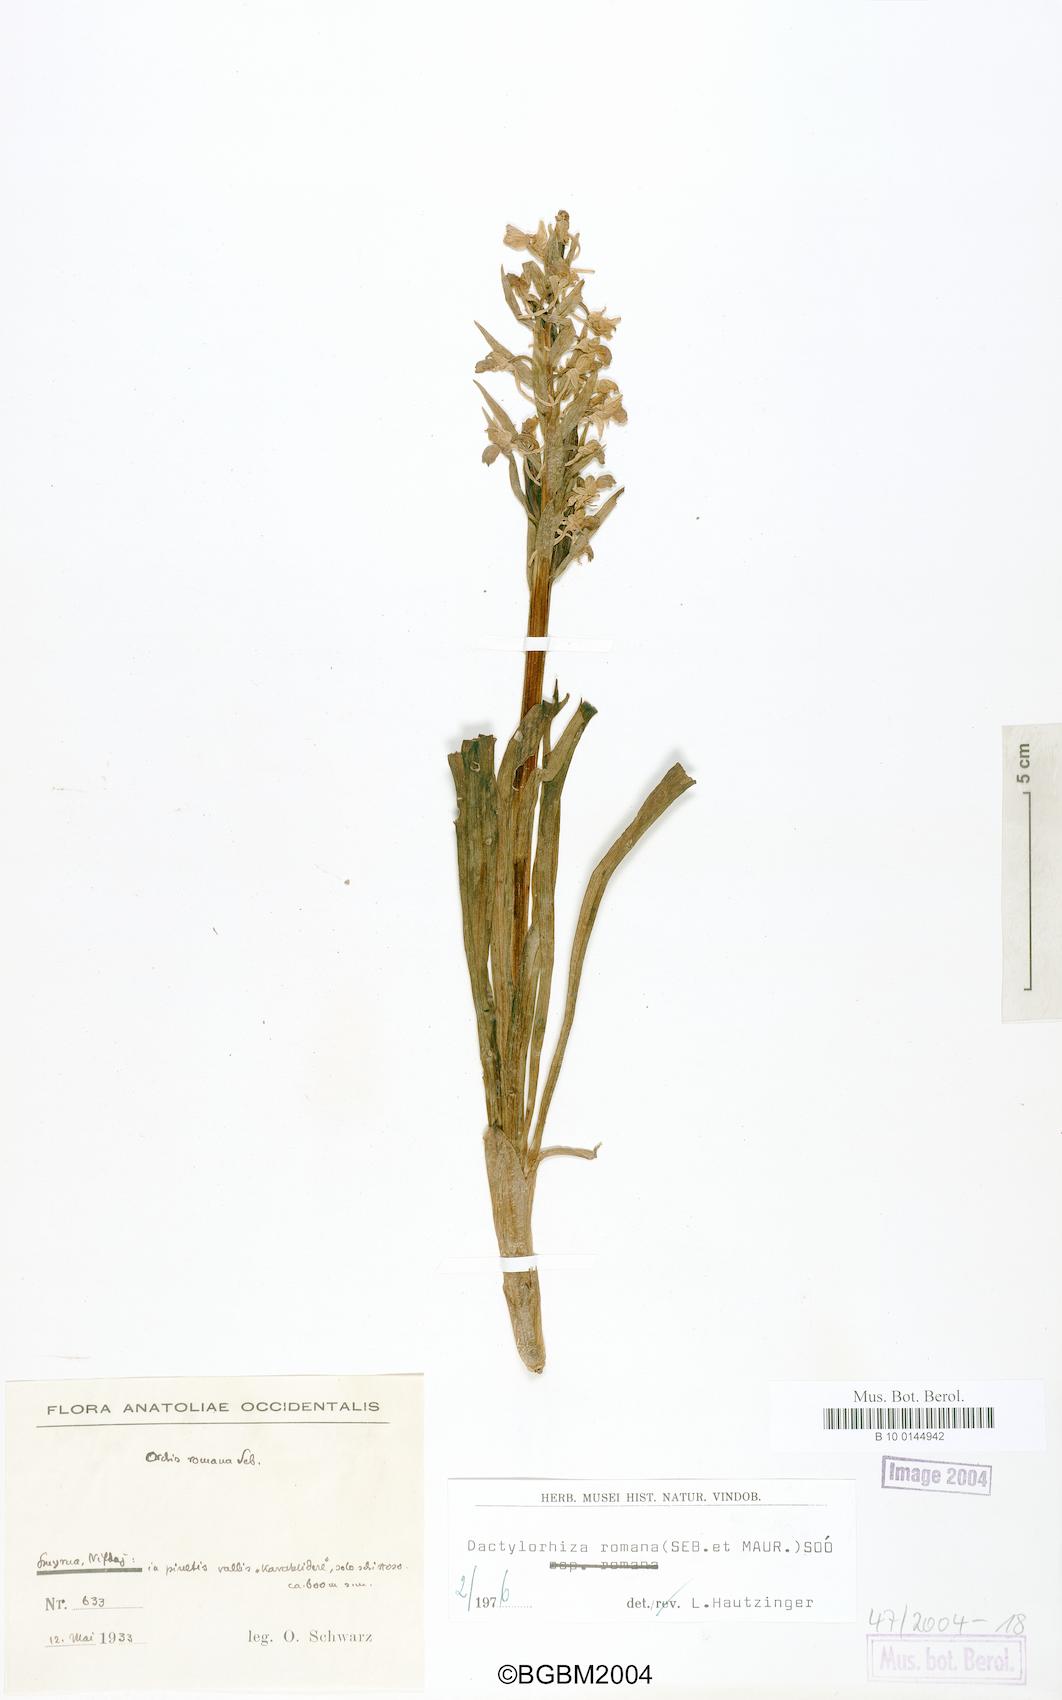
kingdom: Plantae
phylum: Tracheophyta
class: Liliopsida
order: Asparagales
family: Orchidaceae
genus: Dactylorhiza
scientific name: Dactylorhiza romana
